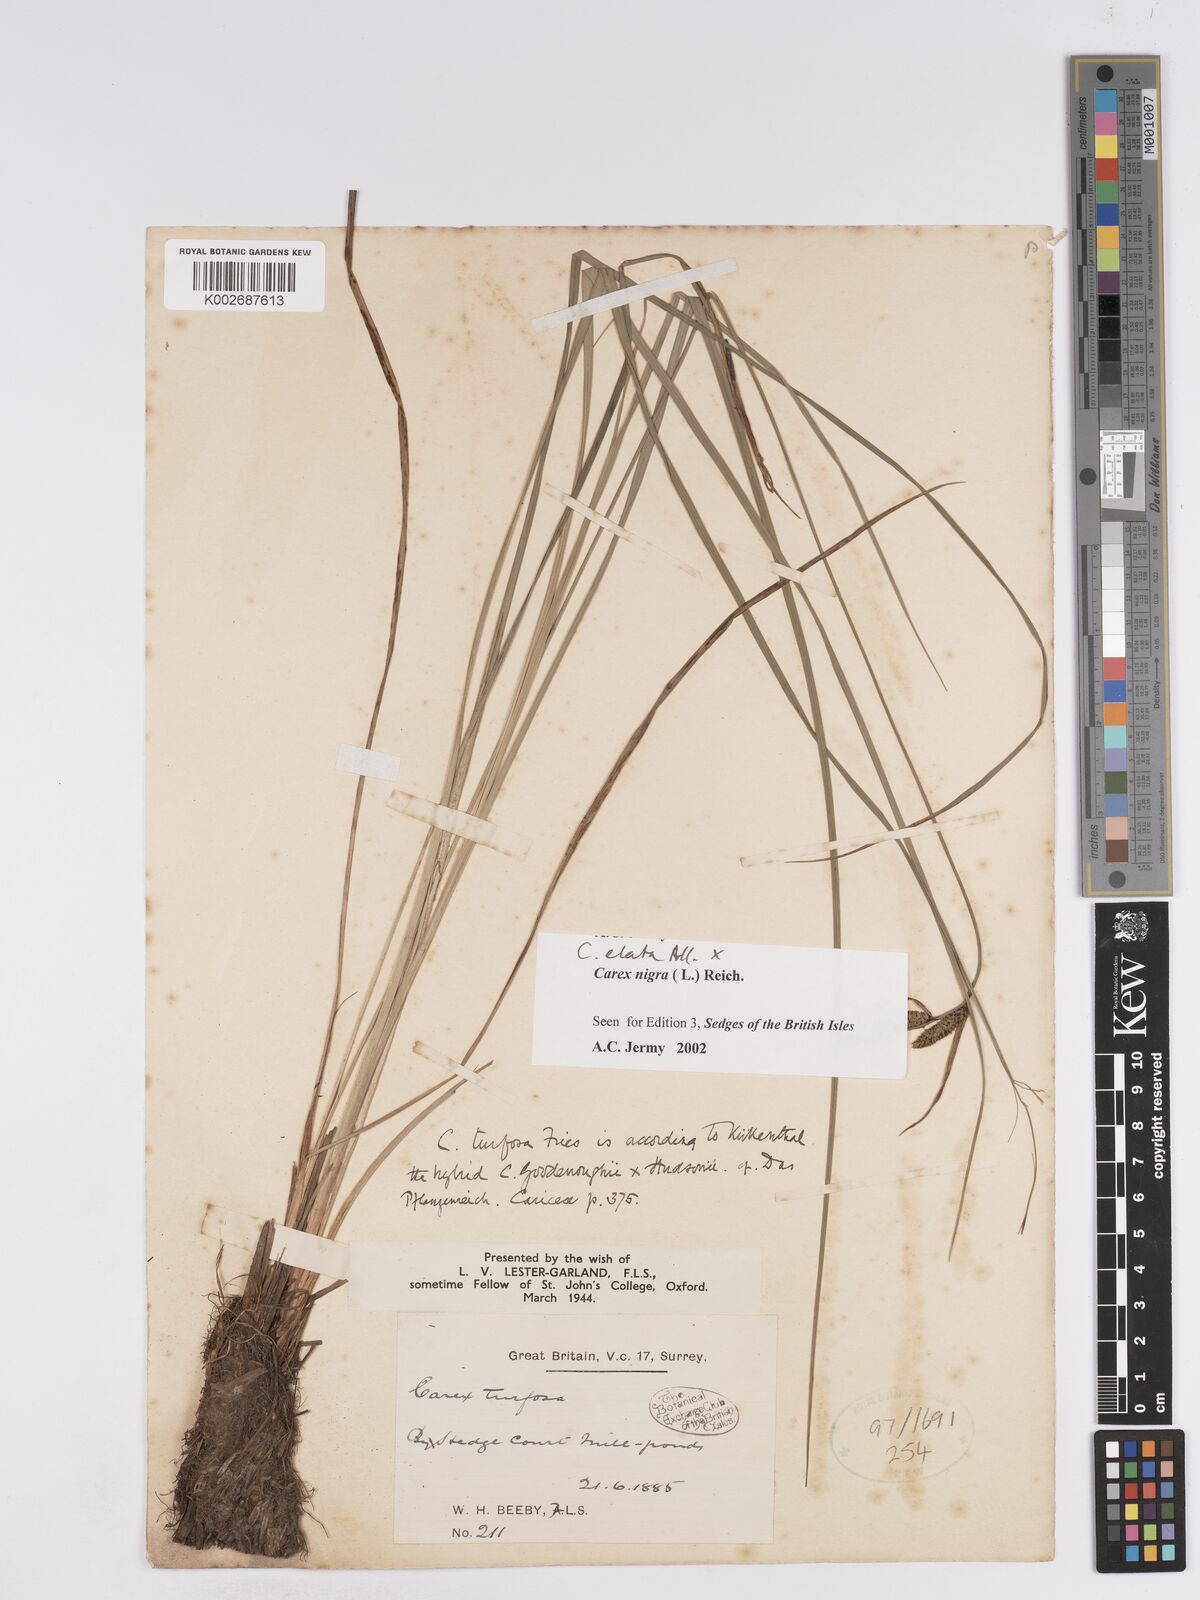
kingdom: Plantae
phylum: Tracheophyta
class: Liliopsida
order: Poales
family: Cyperaceae
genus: Carex
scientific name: Carex nigra
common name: Common sedge
